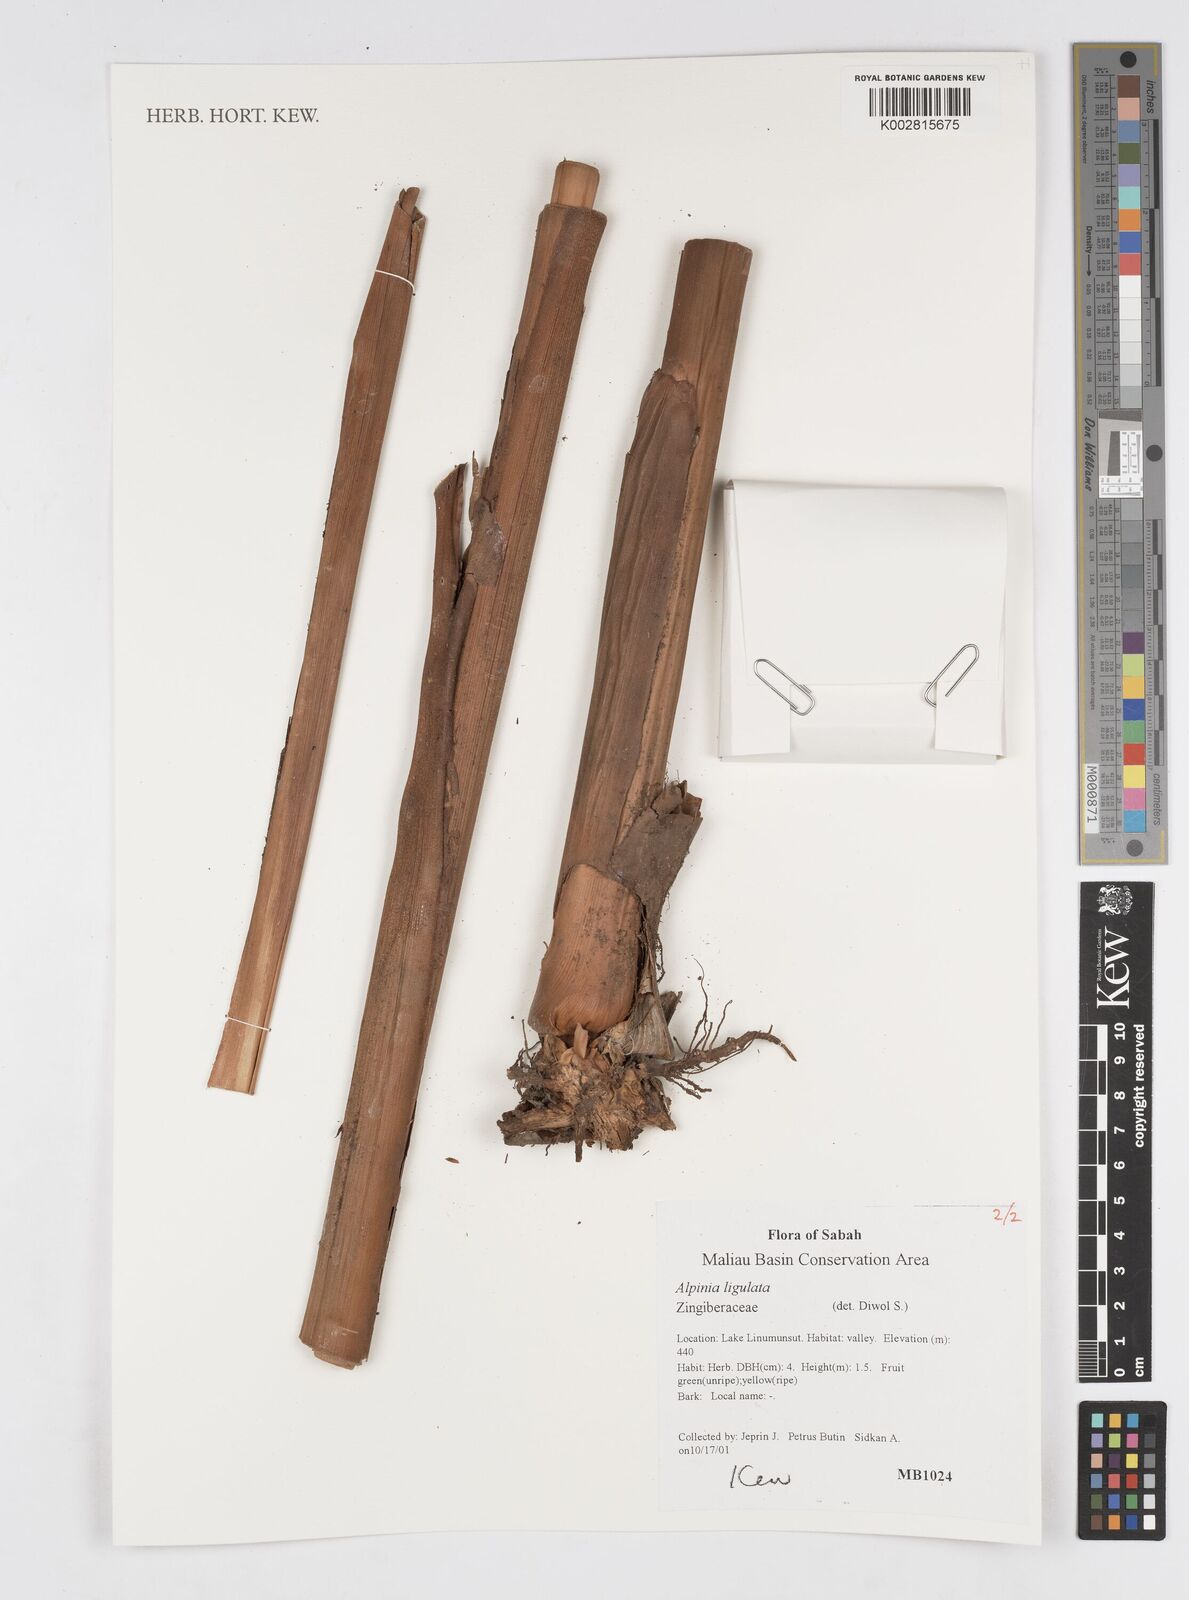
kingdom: Plantae
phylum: Tracheophyta
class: Liliopsida
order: Zingiberales
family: Zingiberaceae
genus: Alpinia
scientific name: Alpinia ligulata
